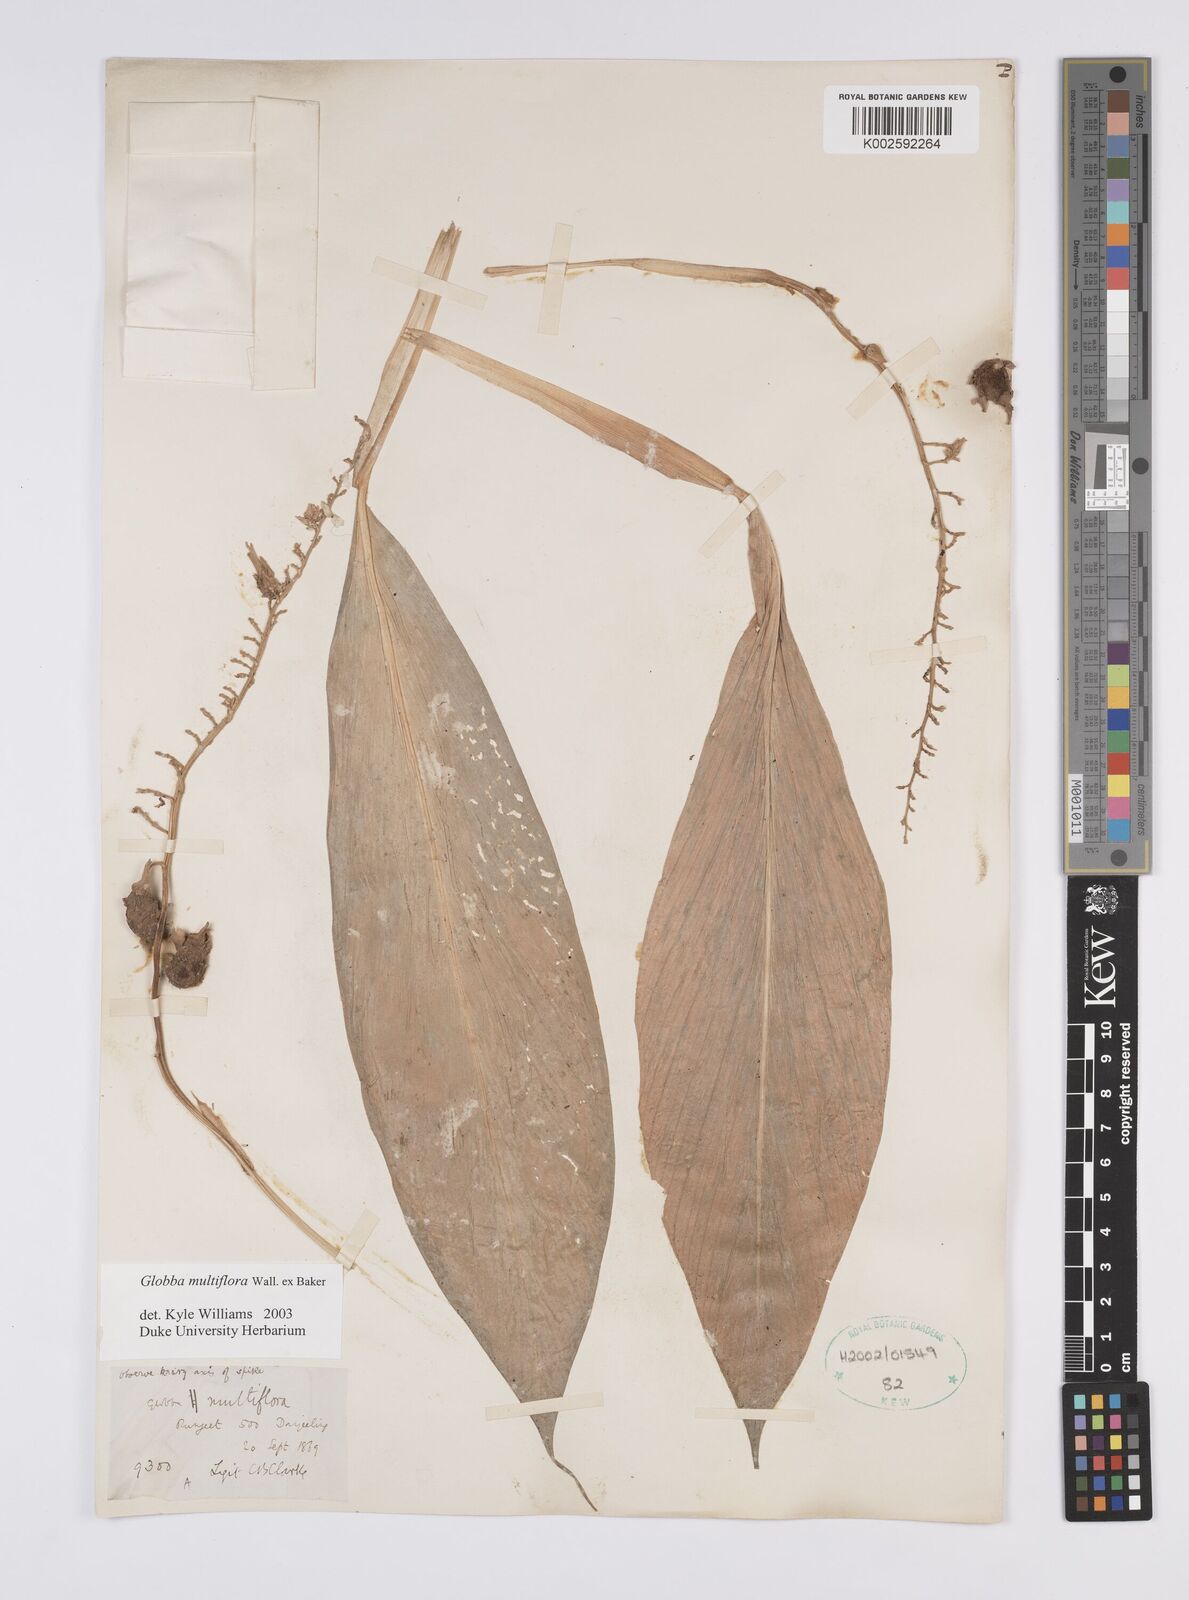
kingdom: Plantae
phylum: Tracheophyta
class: Liliopsida
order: Zingiberales
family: Zingiberaceae
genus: Globba
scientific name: Globba multiflora
